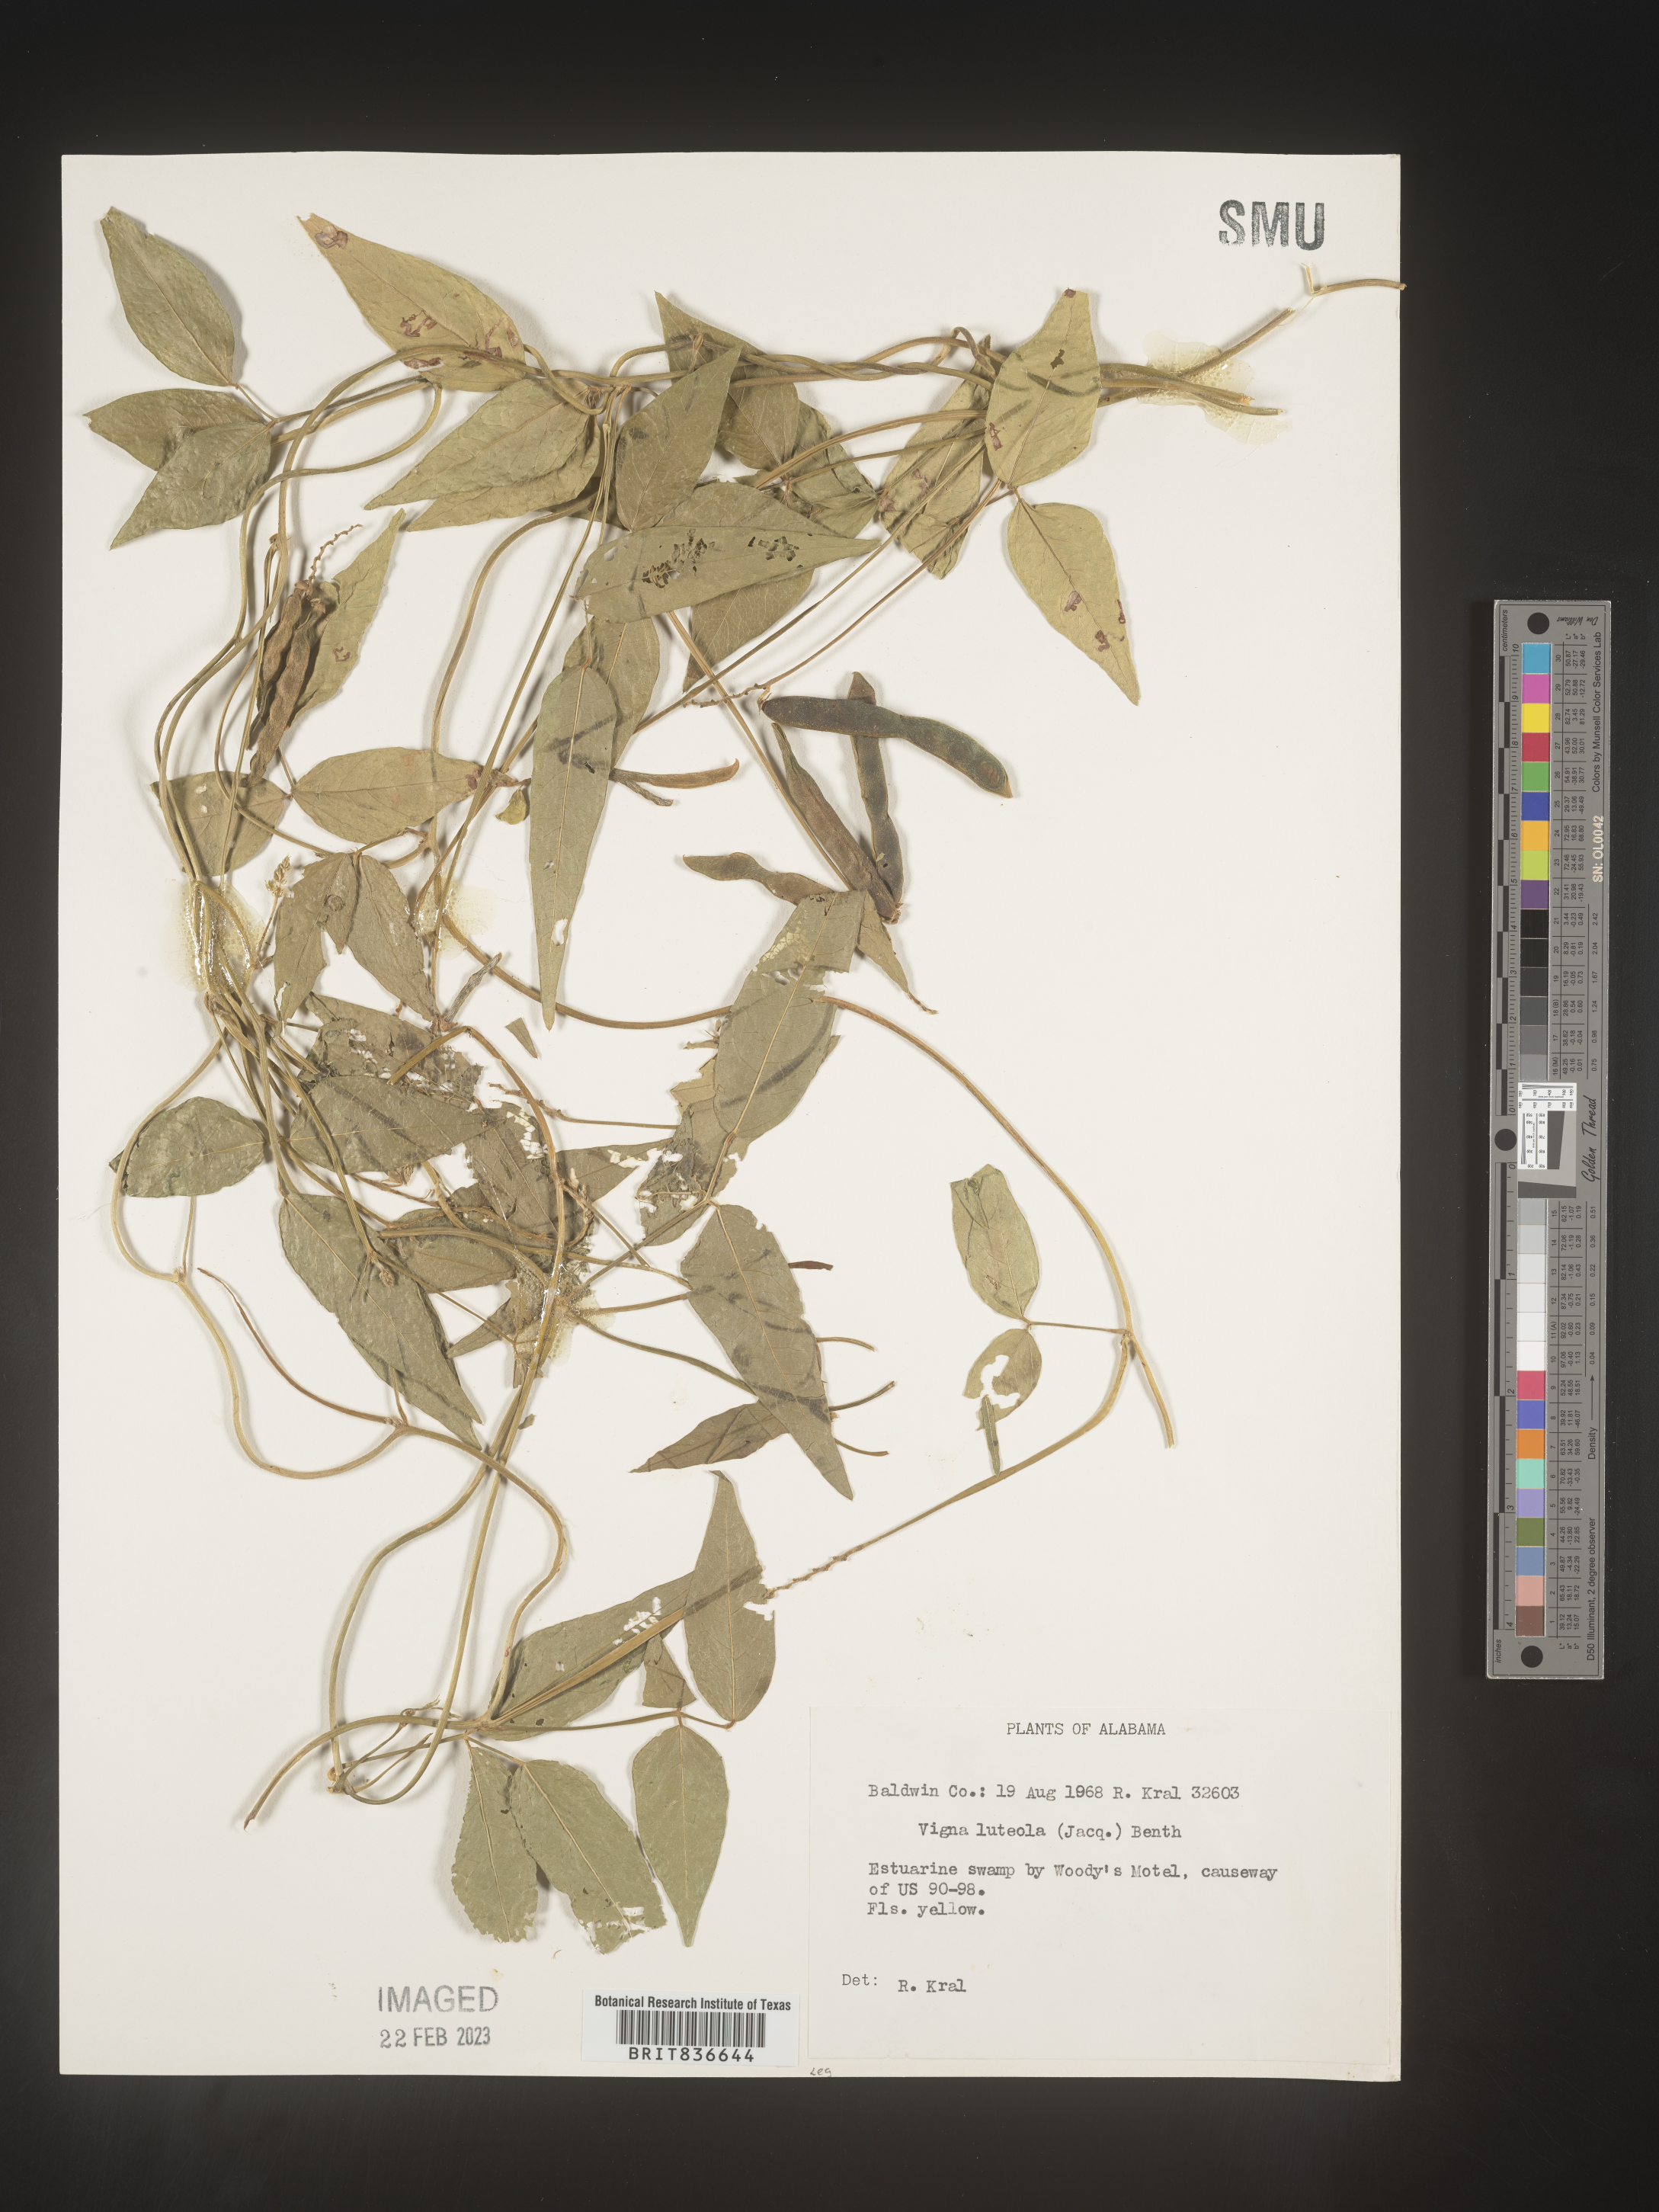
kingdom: Plantae
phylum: Tracheophyta
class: Magnoliopsida
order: Fabales
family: Fabaceae
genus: Vigna
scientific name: Vigna luteola
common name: Hairypod cowpea
